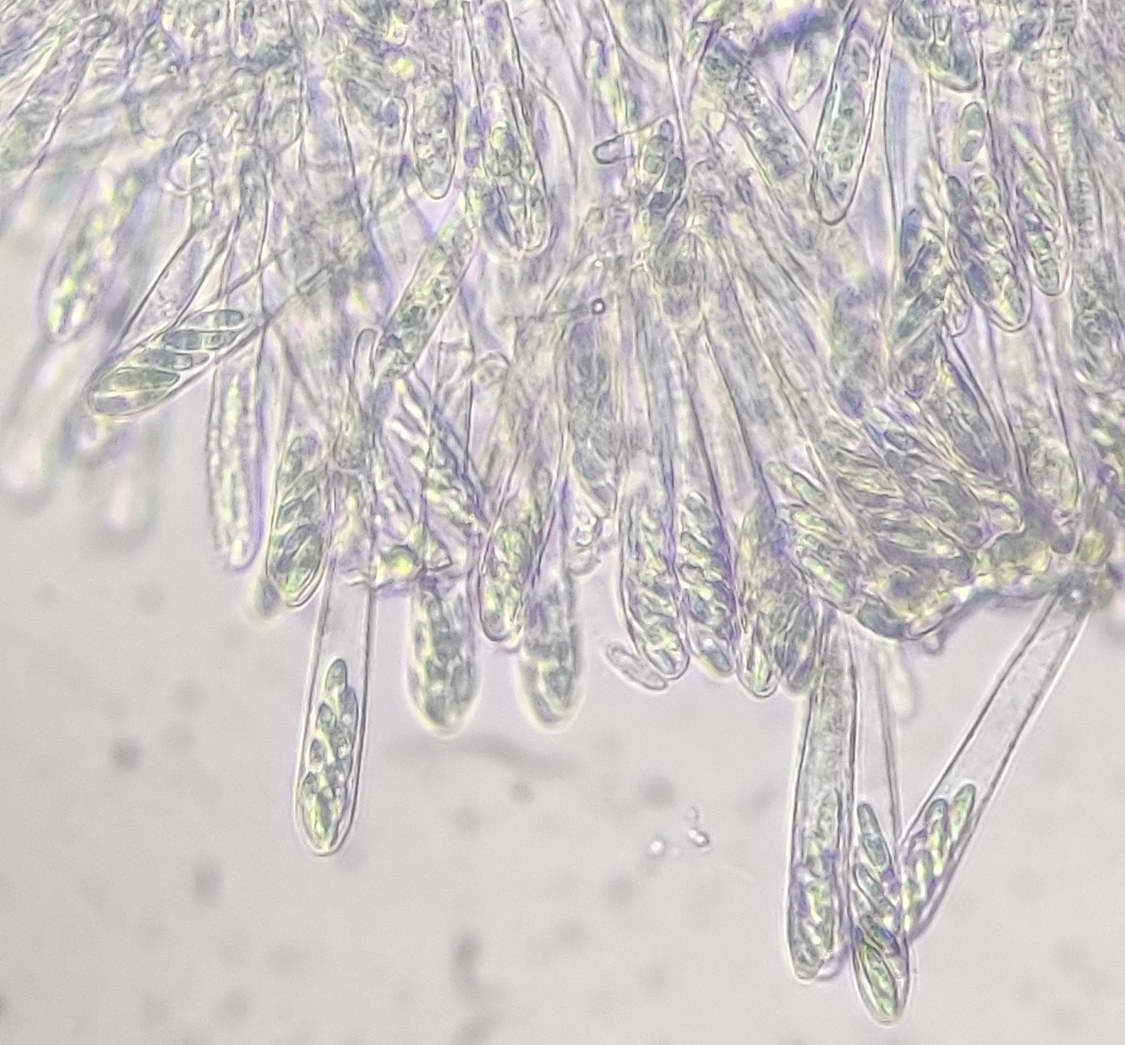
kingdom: Fungi
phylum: Ascomycota
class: Leotiomycetes
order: Helotiales
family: Helotiaceae
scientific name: Helotiaceae
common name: stilkskivefamilien
